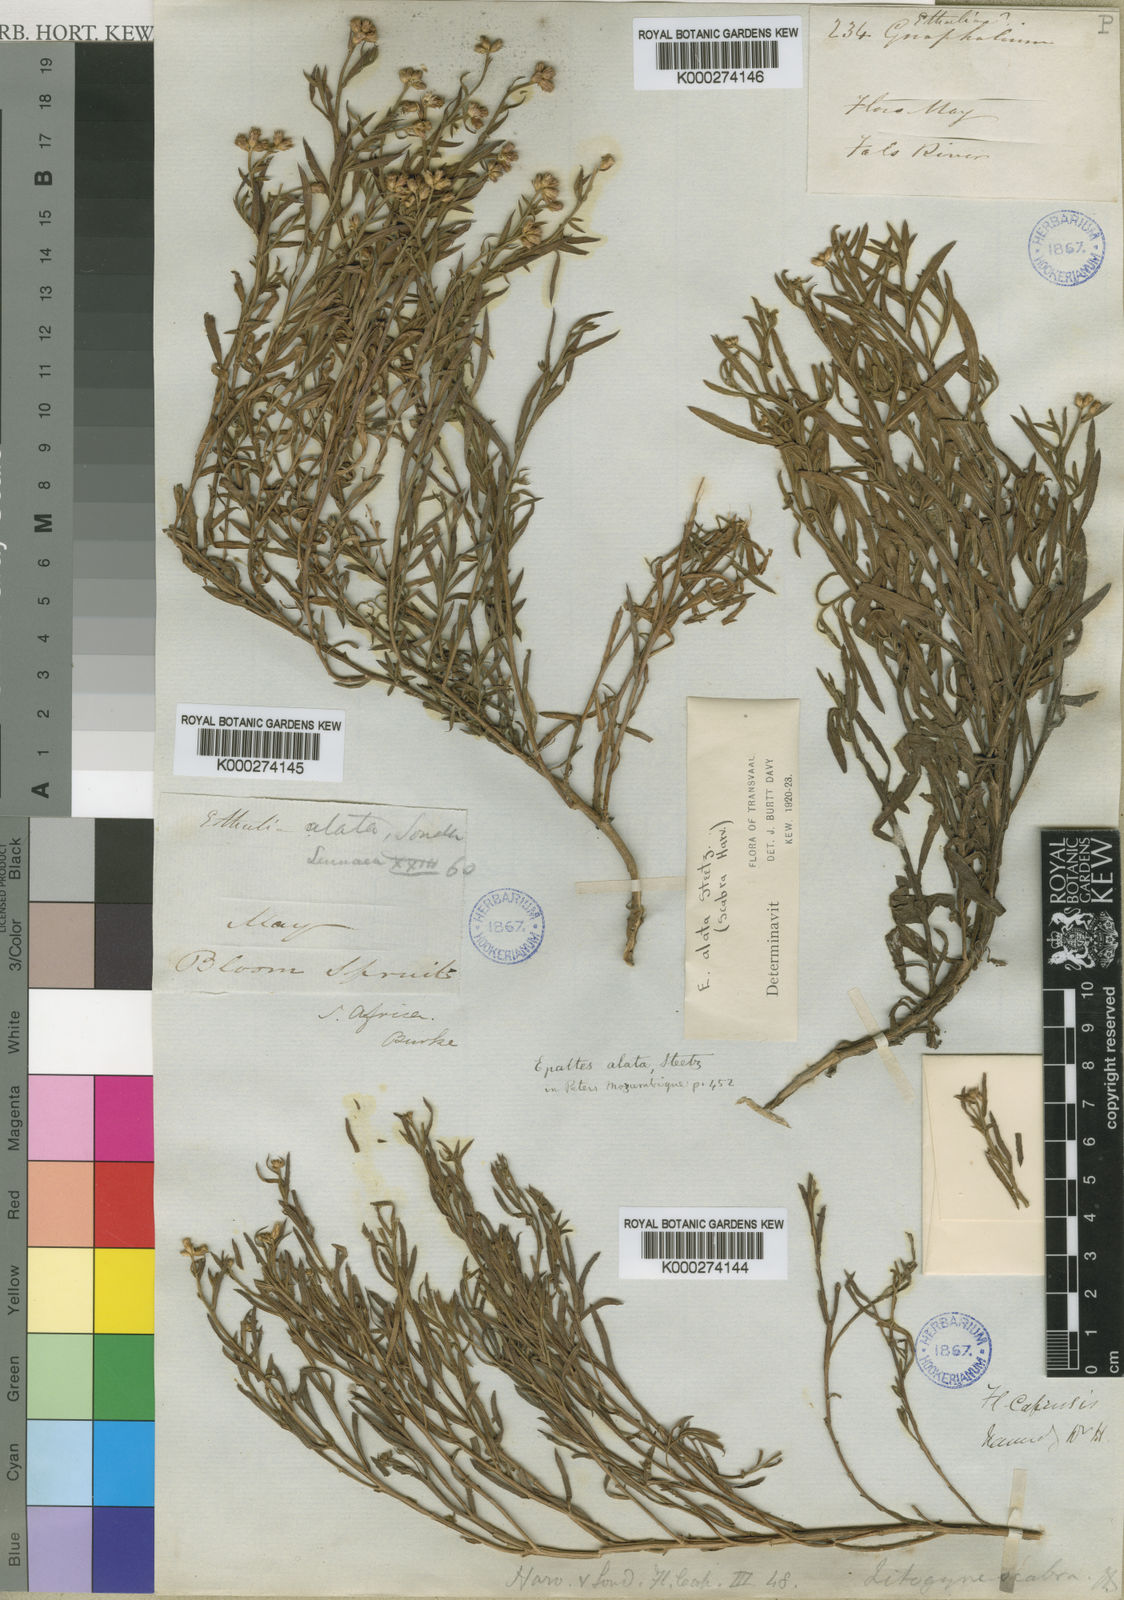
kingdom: Plantae
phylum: Tracheophyta
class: Magnoliopsida
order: Asterales
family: Asteraceae
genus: Litogyne
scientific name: Litogyne gariepina
